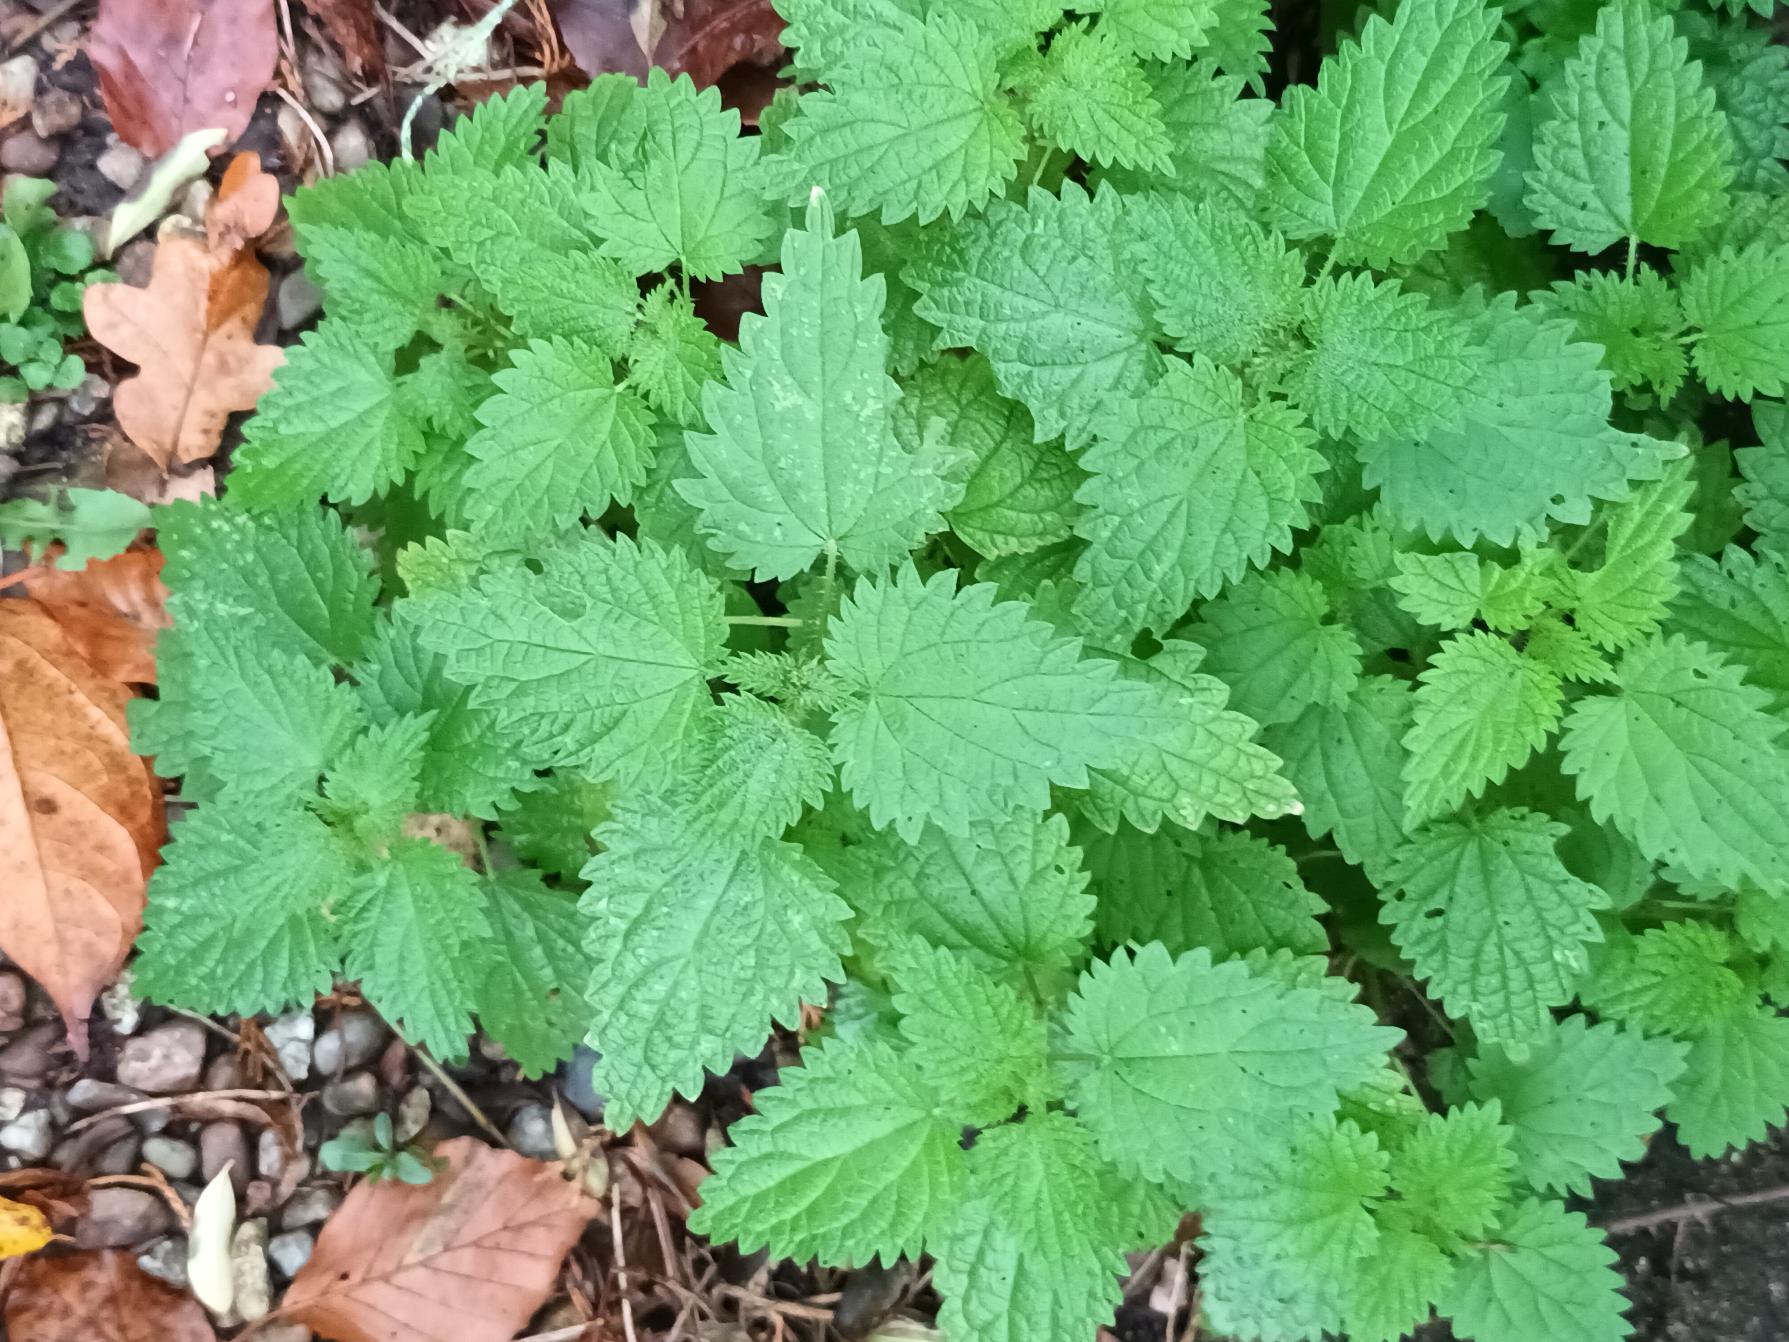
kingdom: Plantae
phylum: Tracheophyta
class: Magnoliopsida
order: Rosales
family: Urticaceae
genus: Urtica
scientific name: Urtica dioica
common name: Stor nælde
